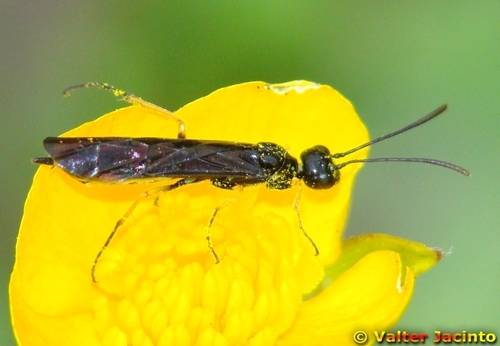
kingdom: Animalia
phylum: Arthropoda
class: Insecta
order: Hymenoptera
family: Cephidae
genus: Cephus
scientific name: Cephus lateralis
